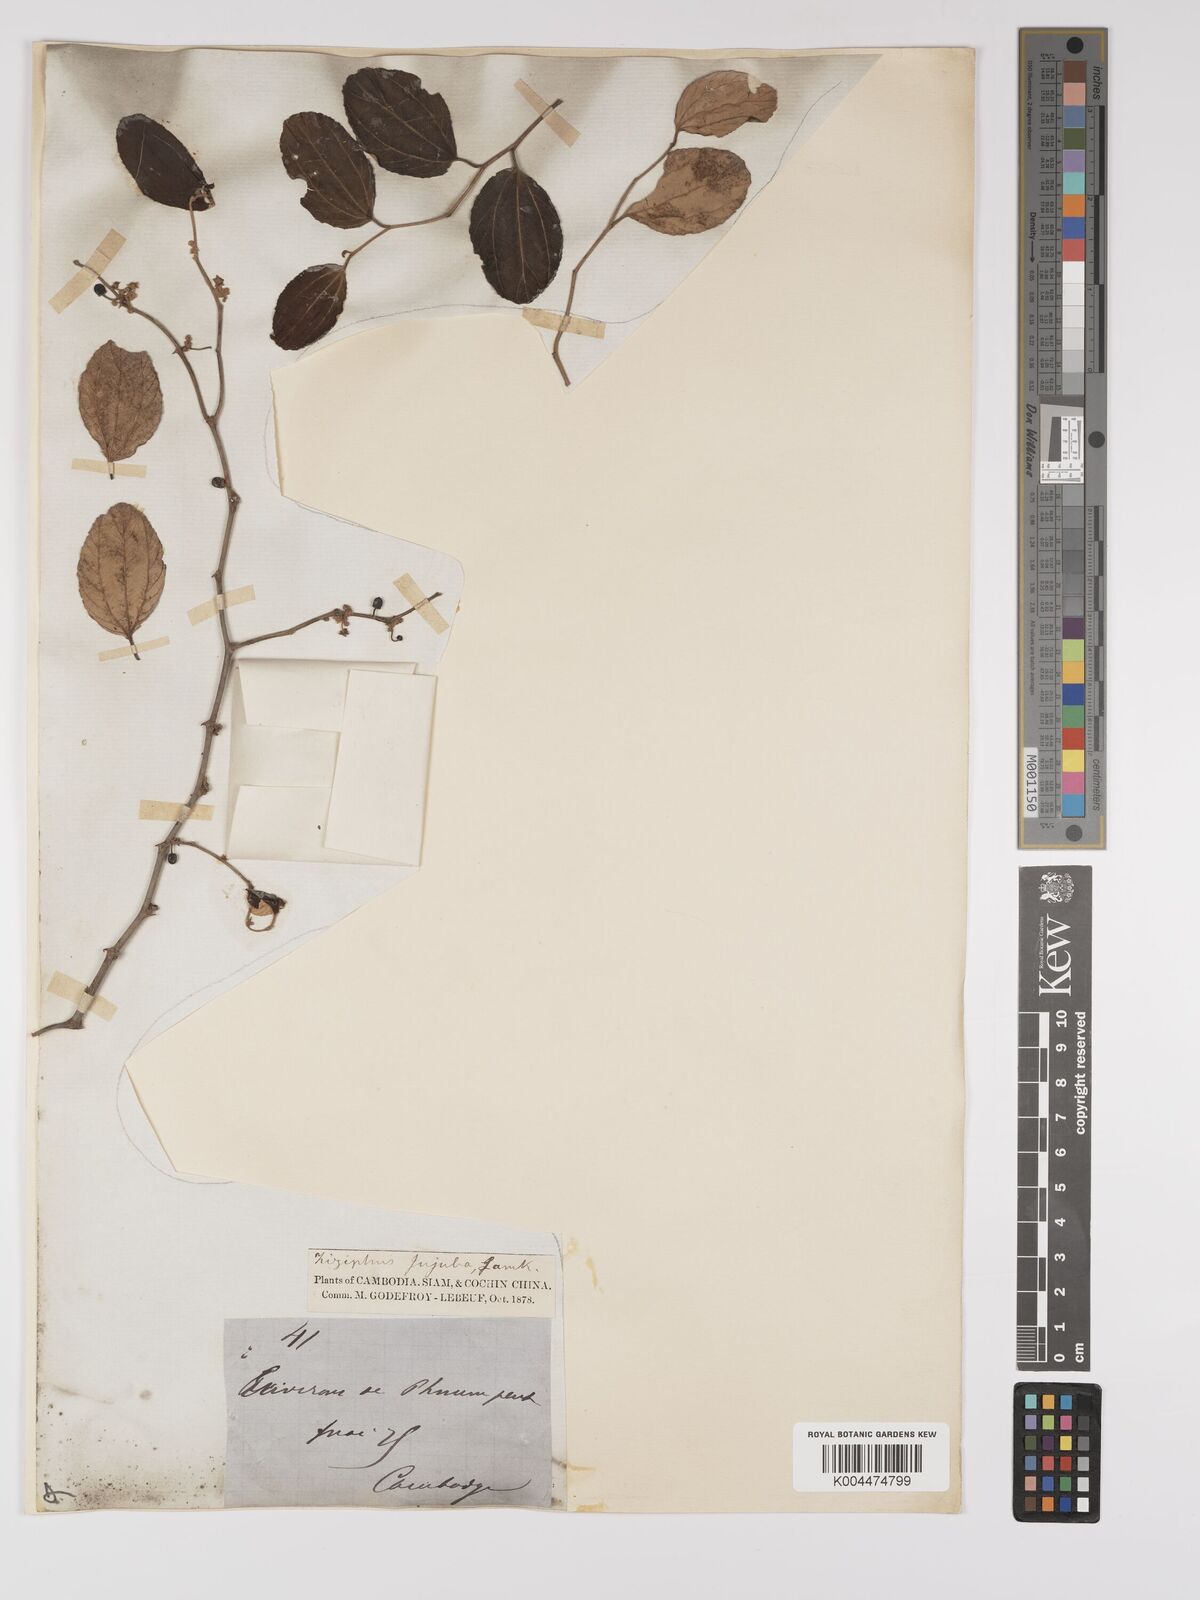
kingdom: Plantae
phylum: Tracheophyta
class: Magnoliopsida
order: Rosales
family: Rhamnaceae
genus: Ziziphus
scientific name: Ziziphus mauritiana
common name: Indian jujube
